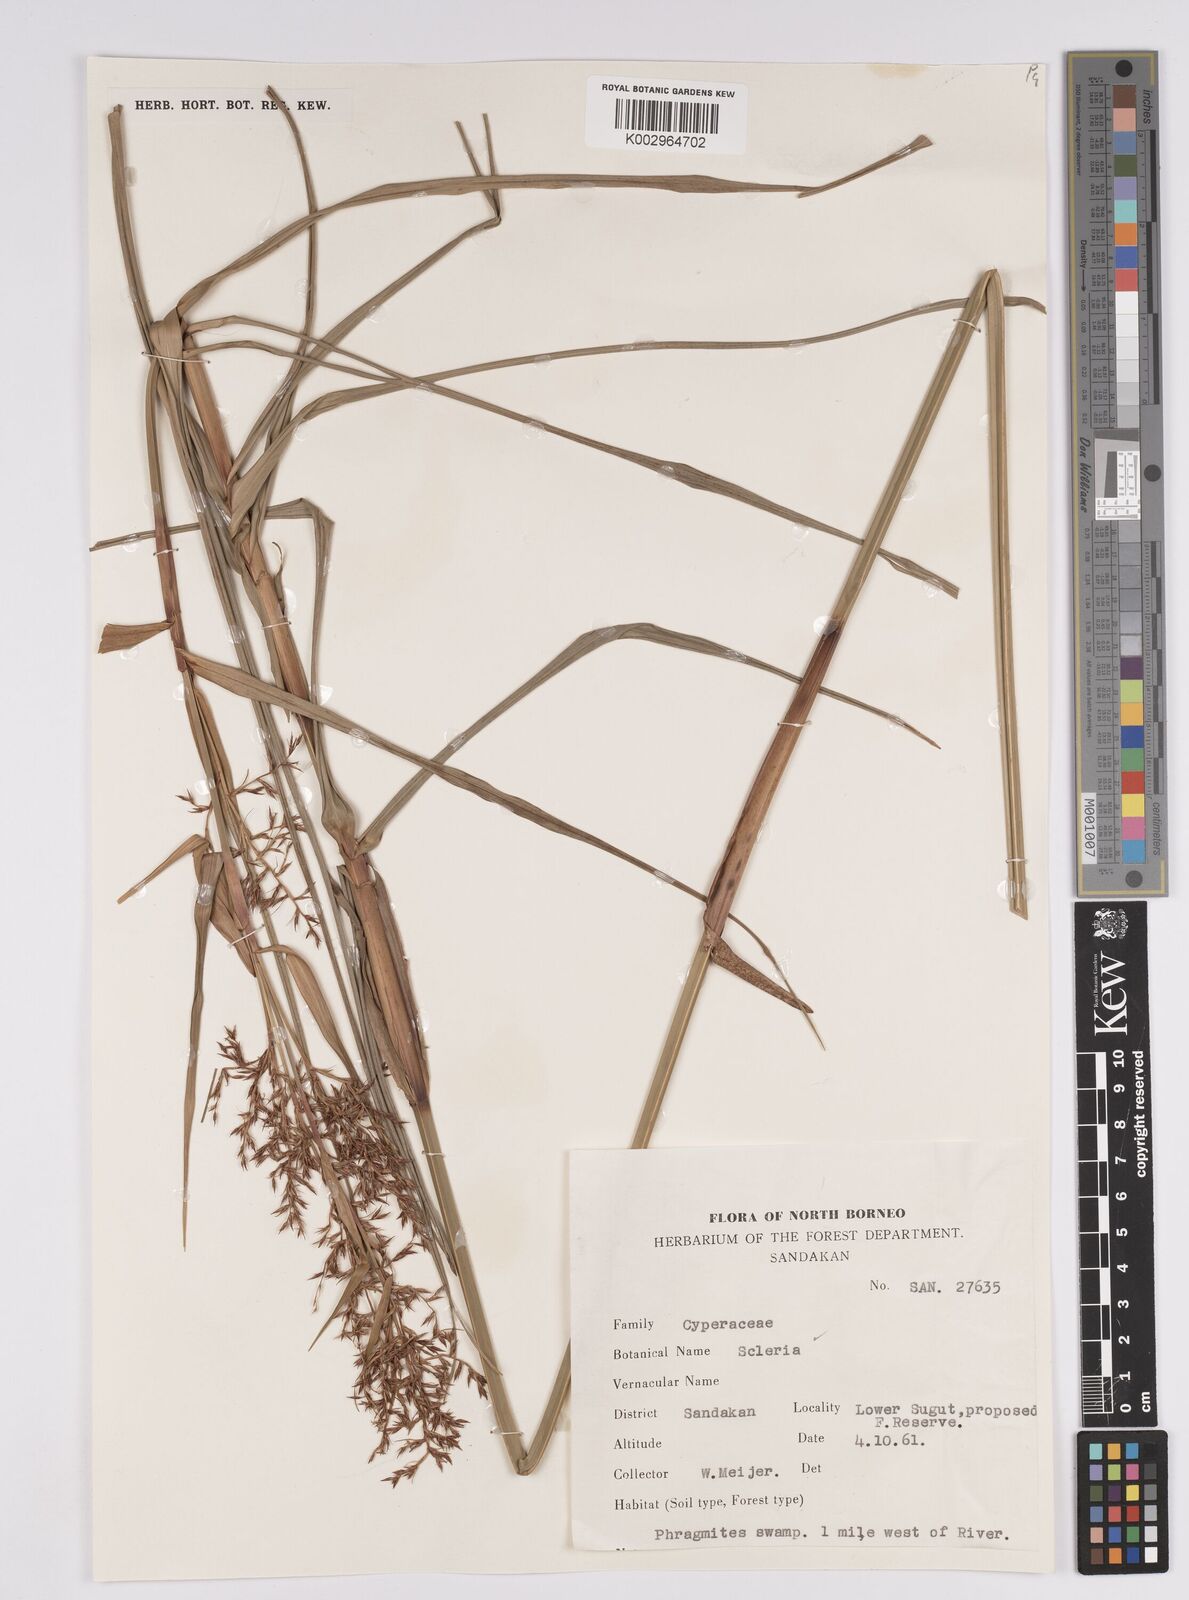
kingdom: Plantae
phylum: Tracheophyta
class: Liliopsida
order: Poales
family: Cyperaceae
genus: Scleria
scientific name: Scleria
